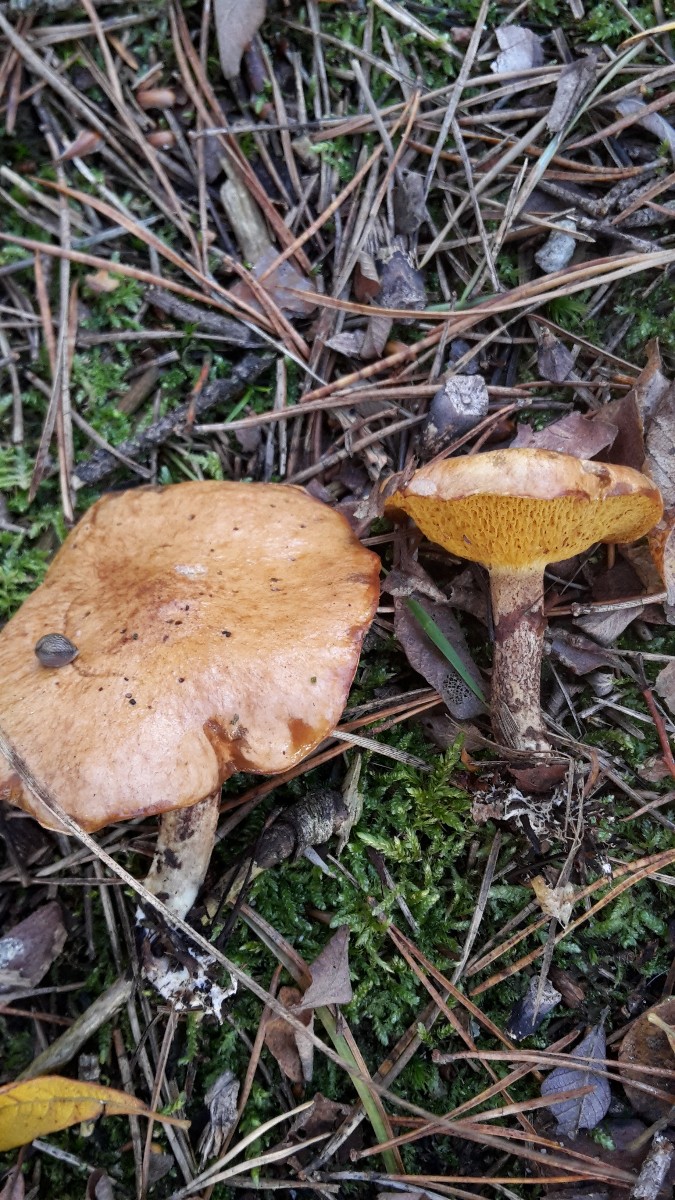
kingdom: Fungi
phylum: Basidiomycota
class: Agaricomycetes
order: Boletales
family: Suillaceae
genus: Suillus
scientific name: Suillus flavidus
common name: mose-slimrørhat
